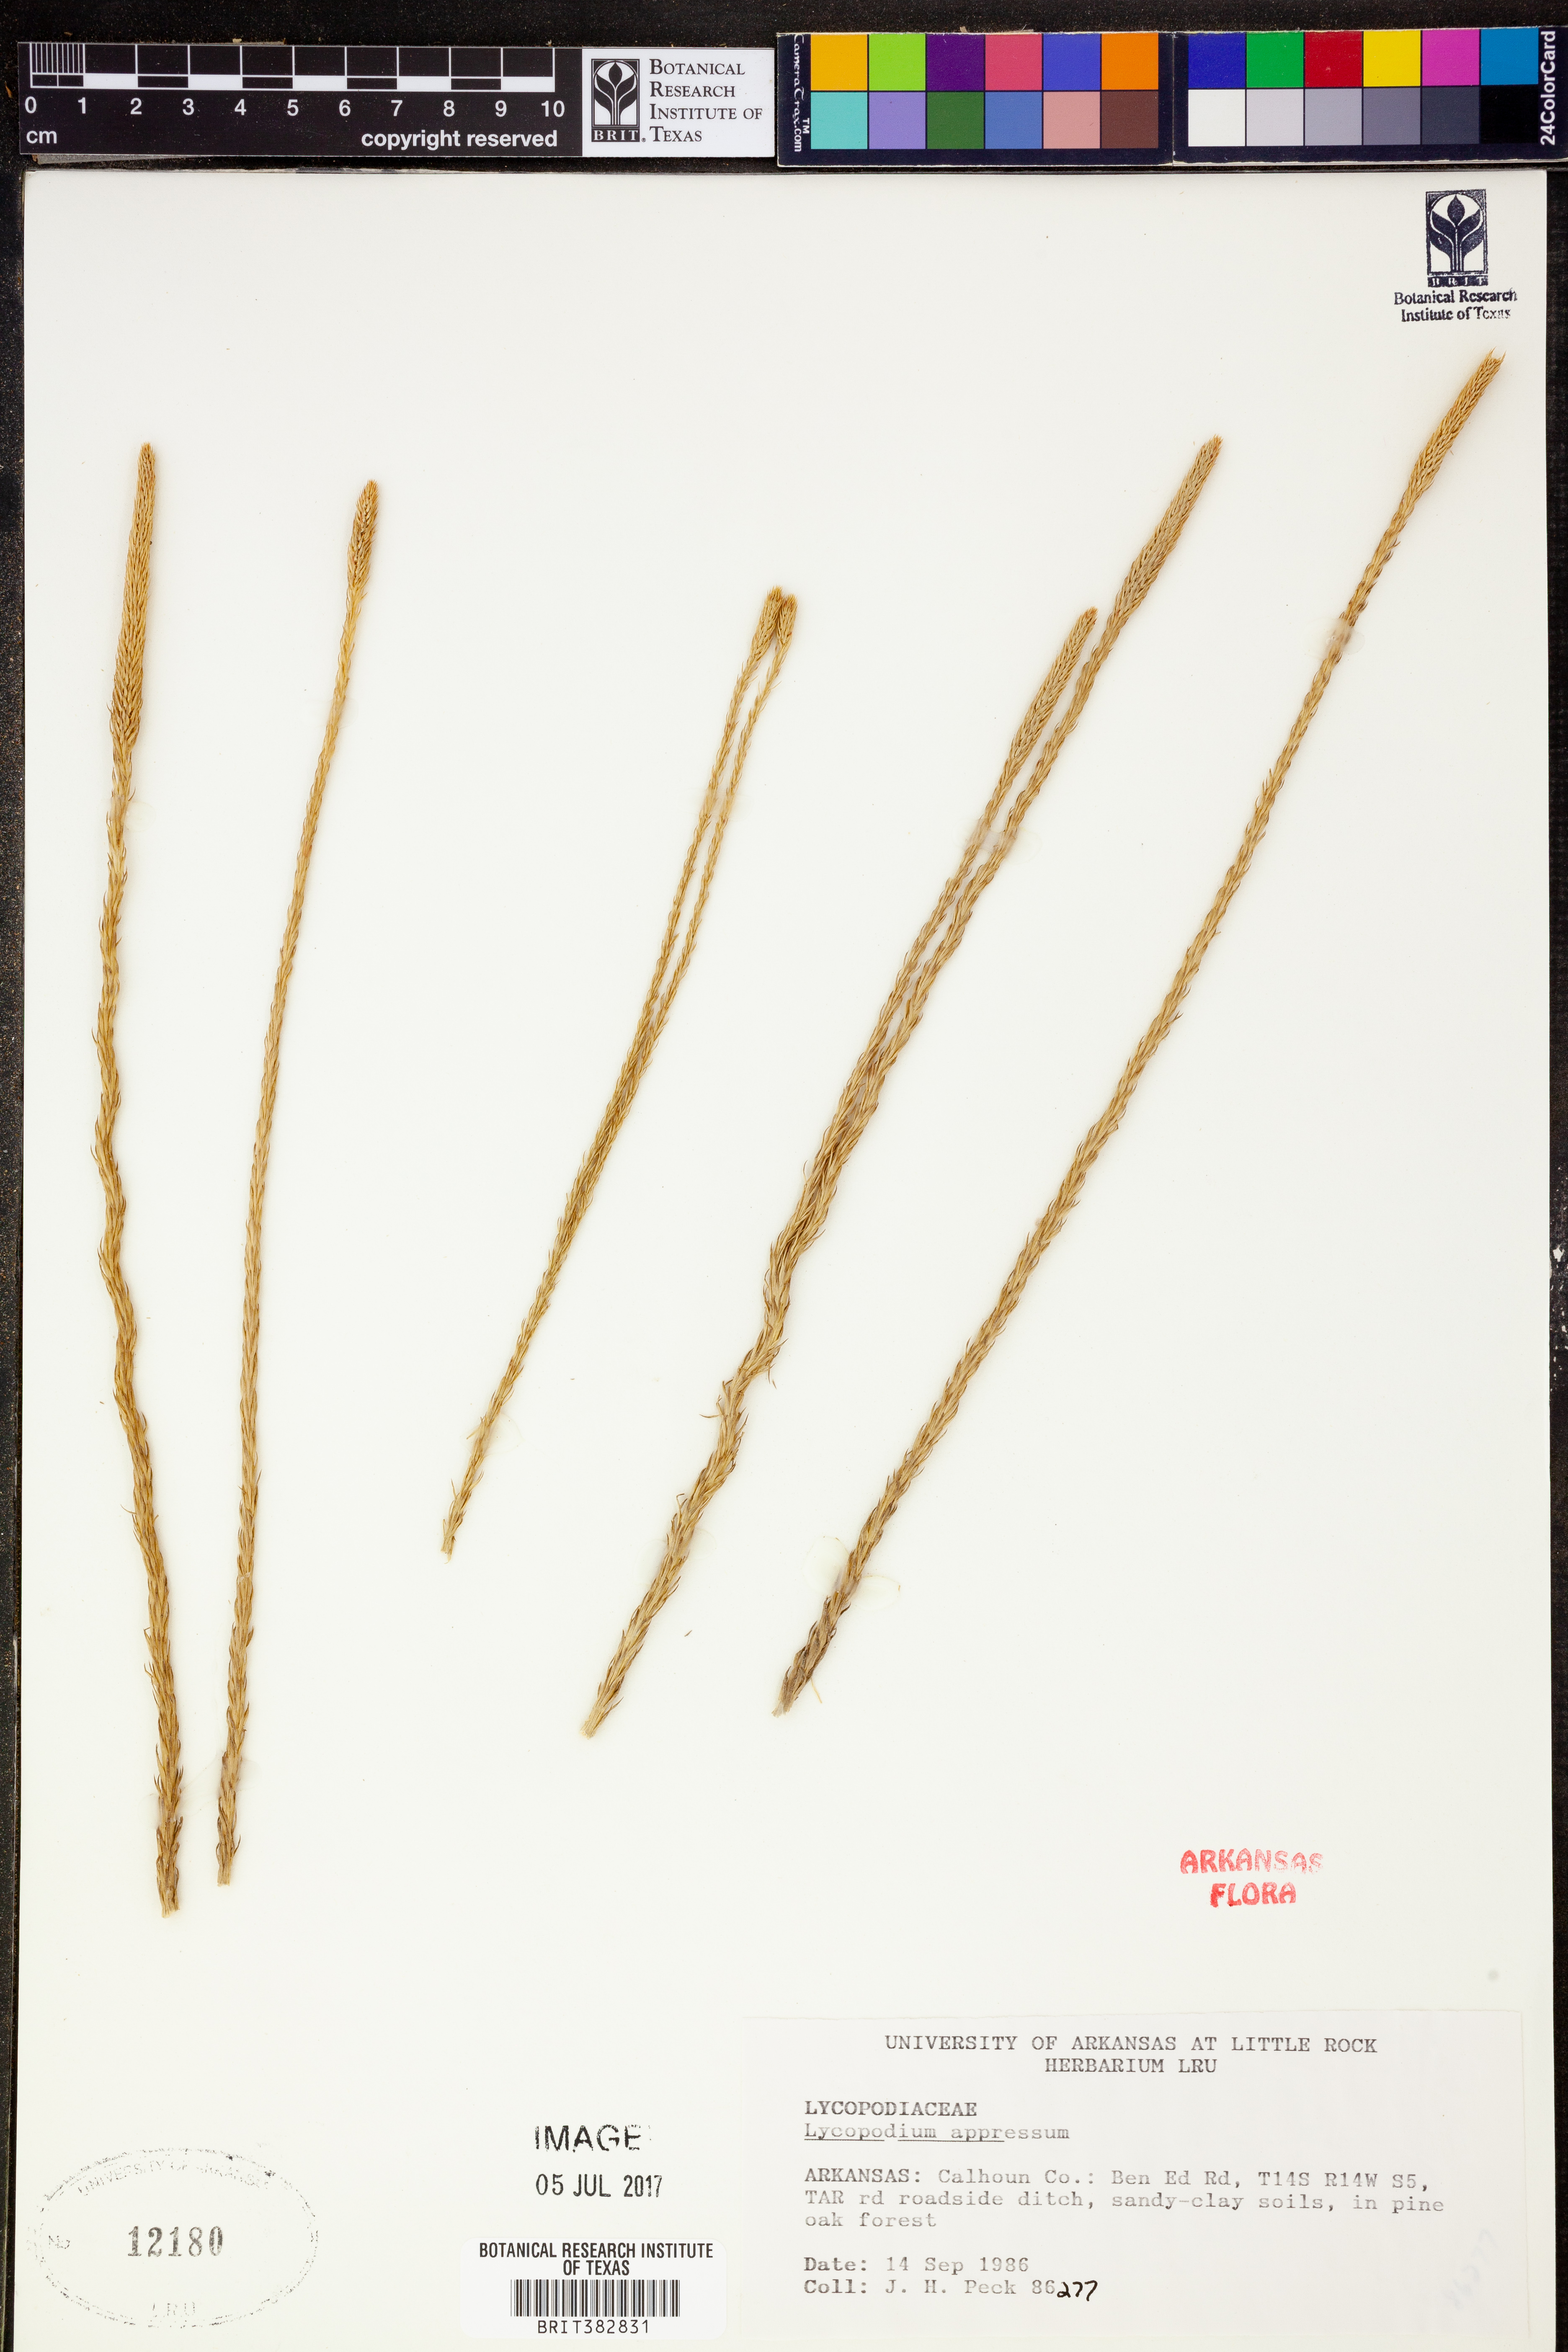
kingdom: Plantae
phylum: Tracheophyta
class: Lycopodiopsida
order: Lycopodiales
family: Lycopodiaceae
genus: Lycopodiella
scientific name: Lycopodiella appressa
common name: Appressed bog clubmoss
